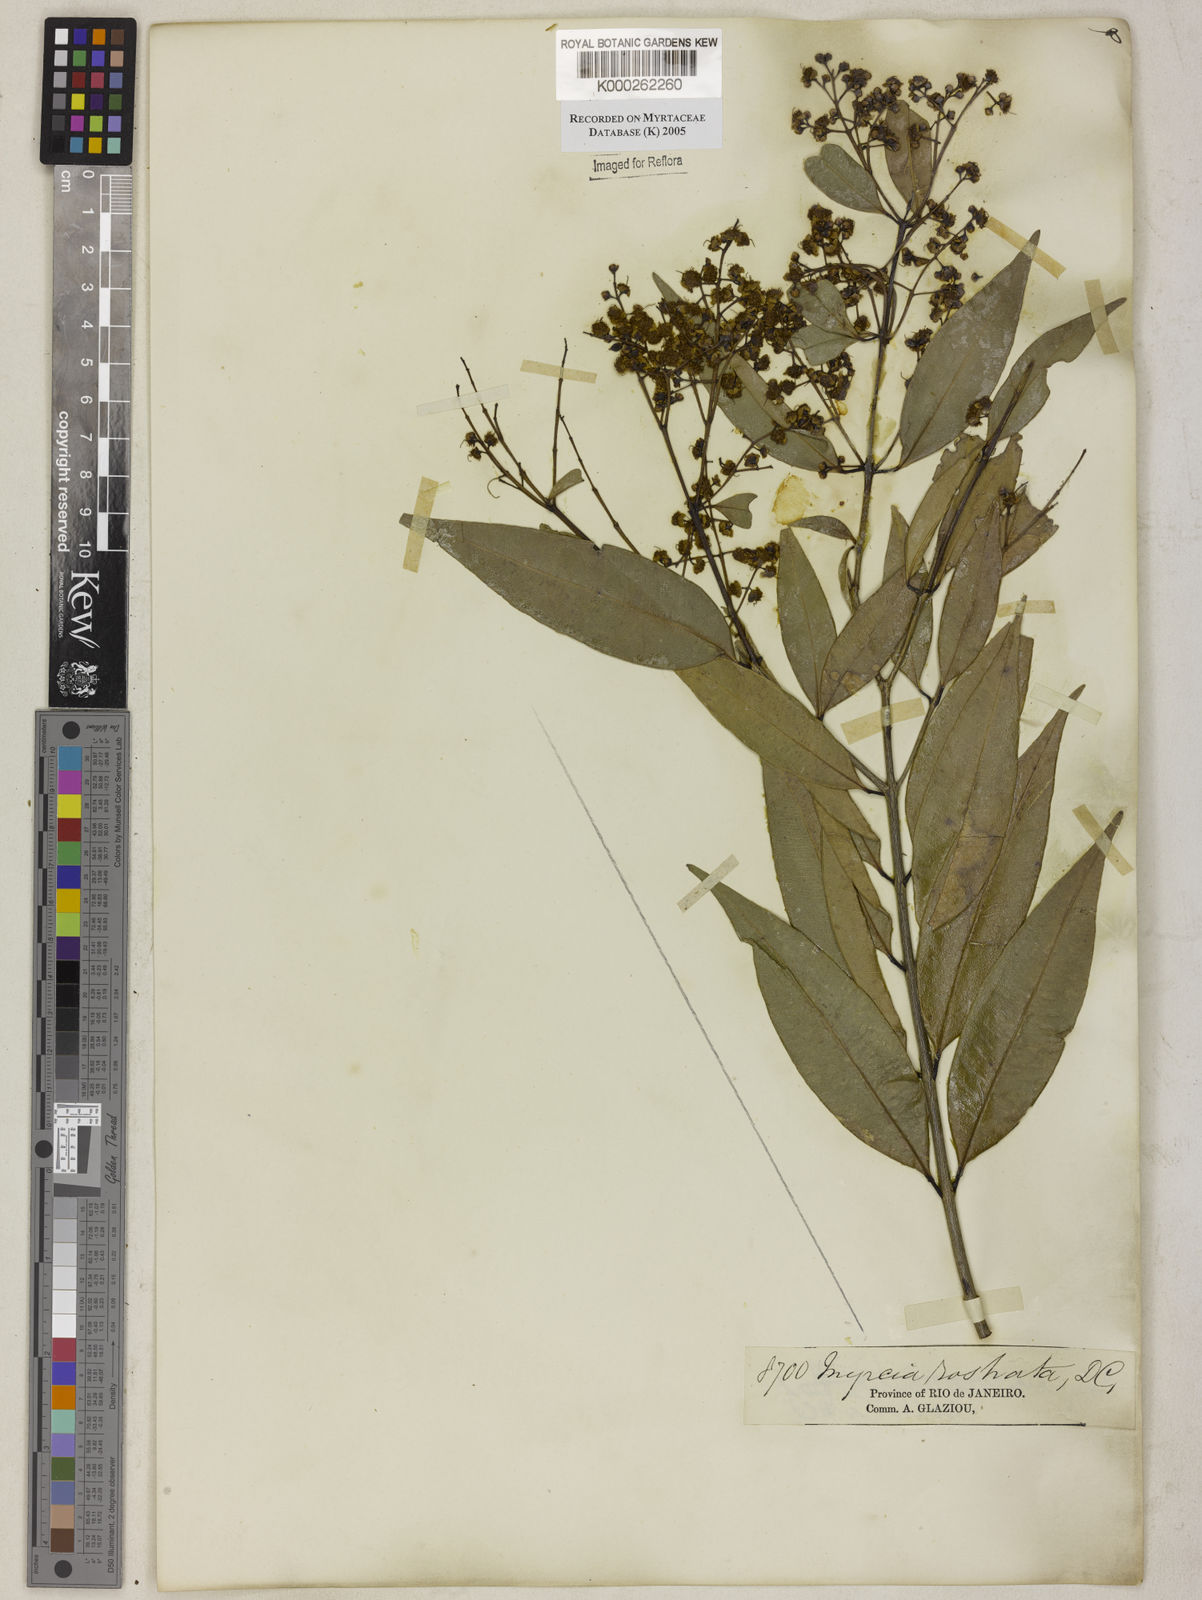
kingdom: Plantae
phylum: Tracheophyta
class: Magnoliopsida
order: Myrtales
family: Myrtaceae
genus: Myrcia
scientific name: Myrcia splendens
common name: Surinam cherry
